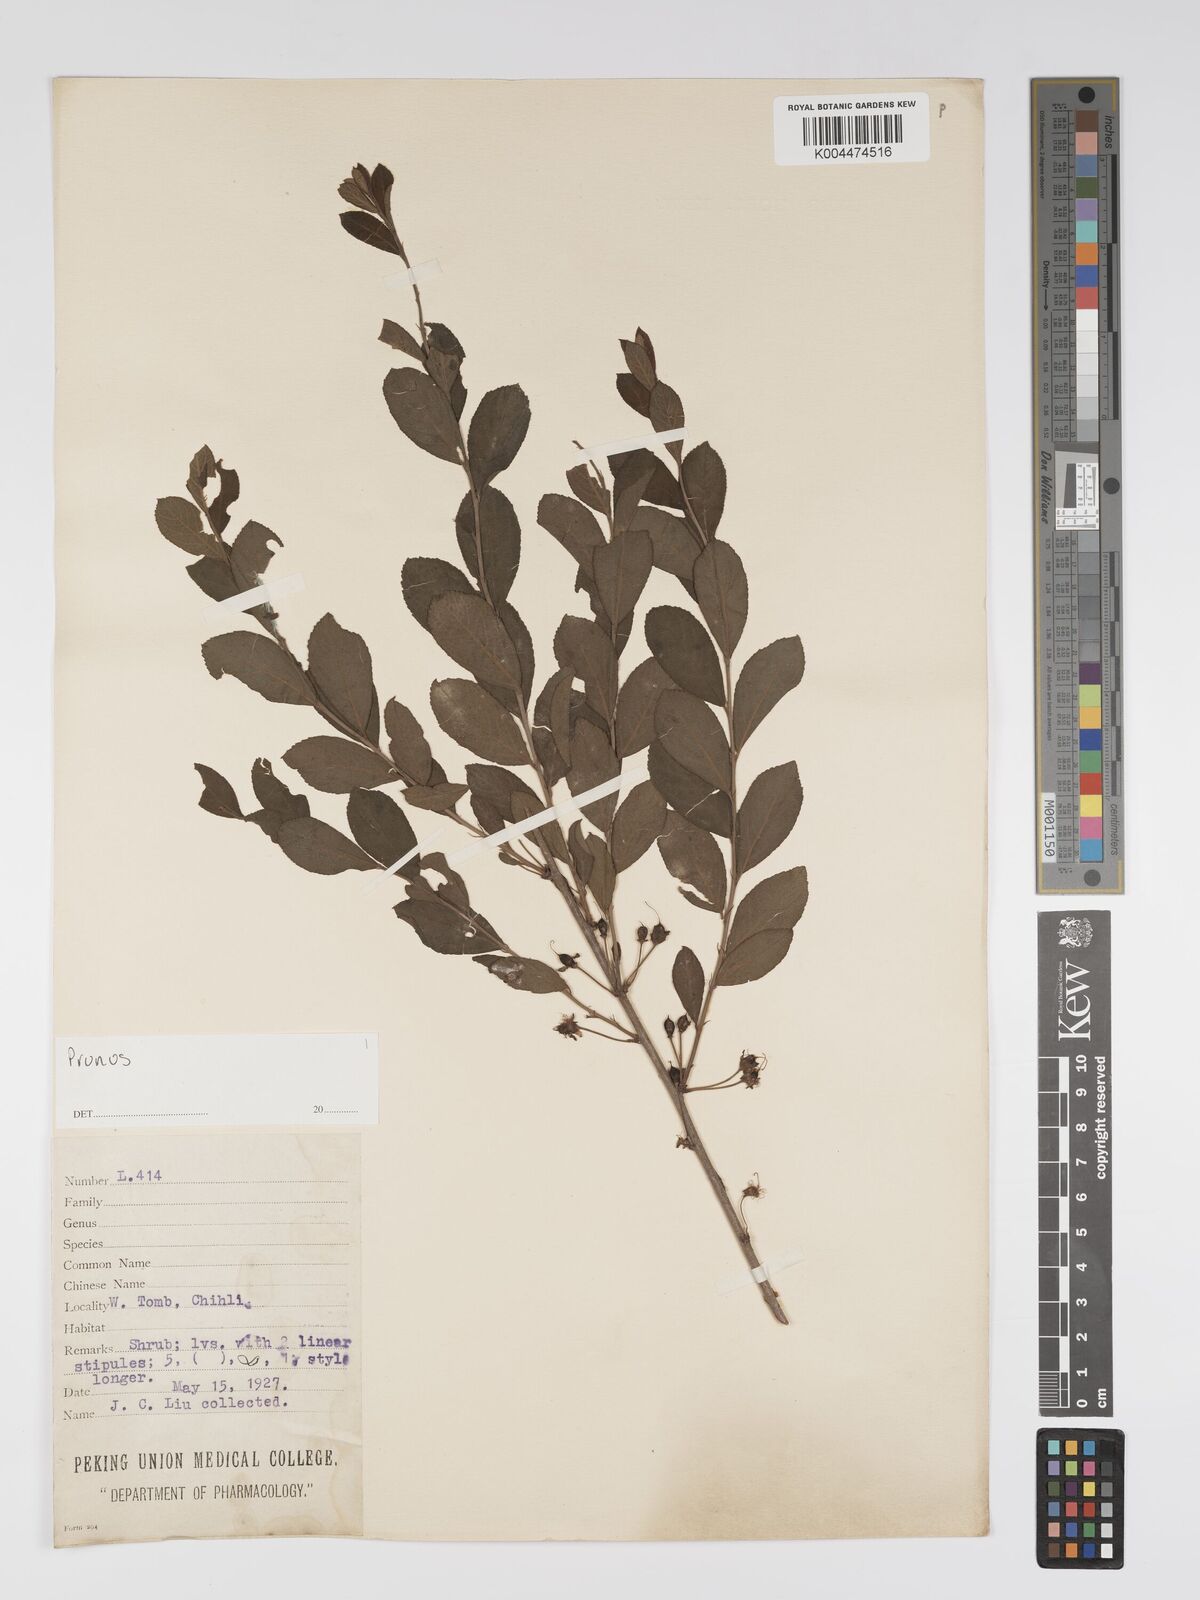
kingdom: Plantae
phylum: Tracheophyta
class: Magnoliopsida
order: Rosales
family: Rosaceae
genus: Prunus
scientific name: Prunus
